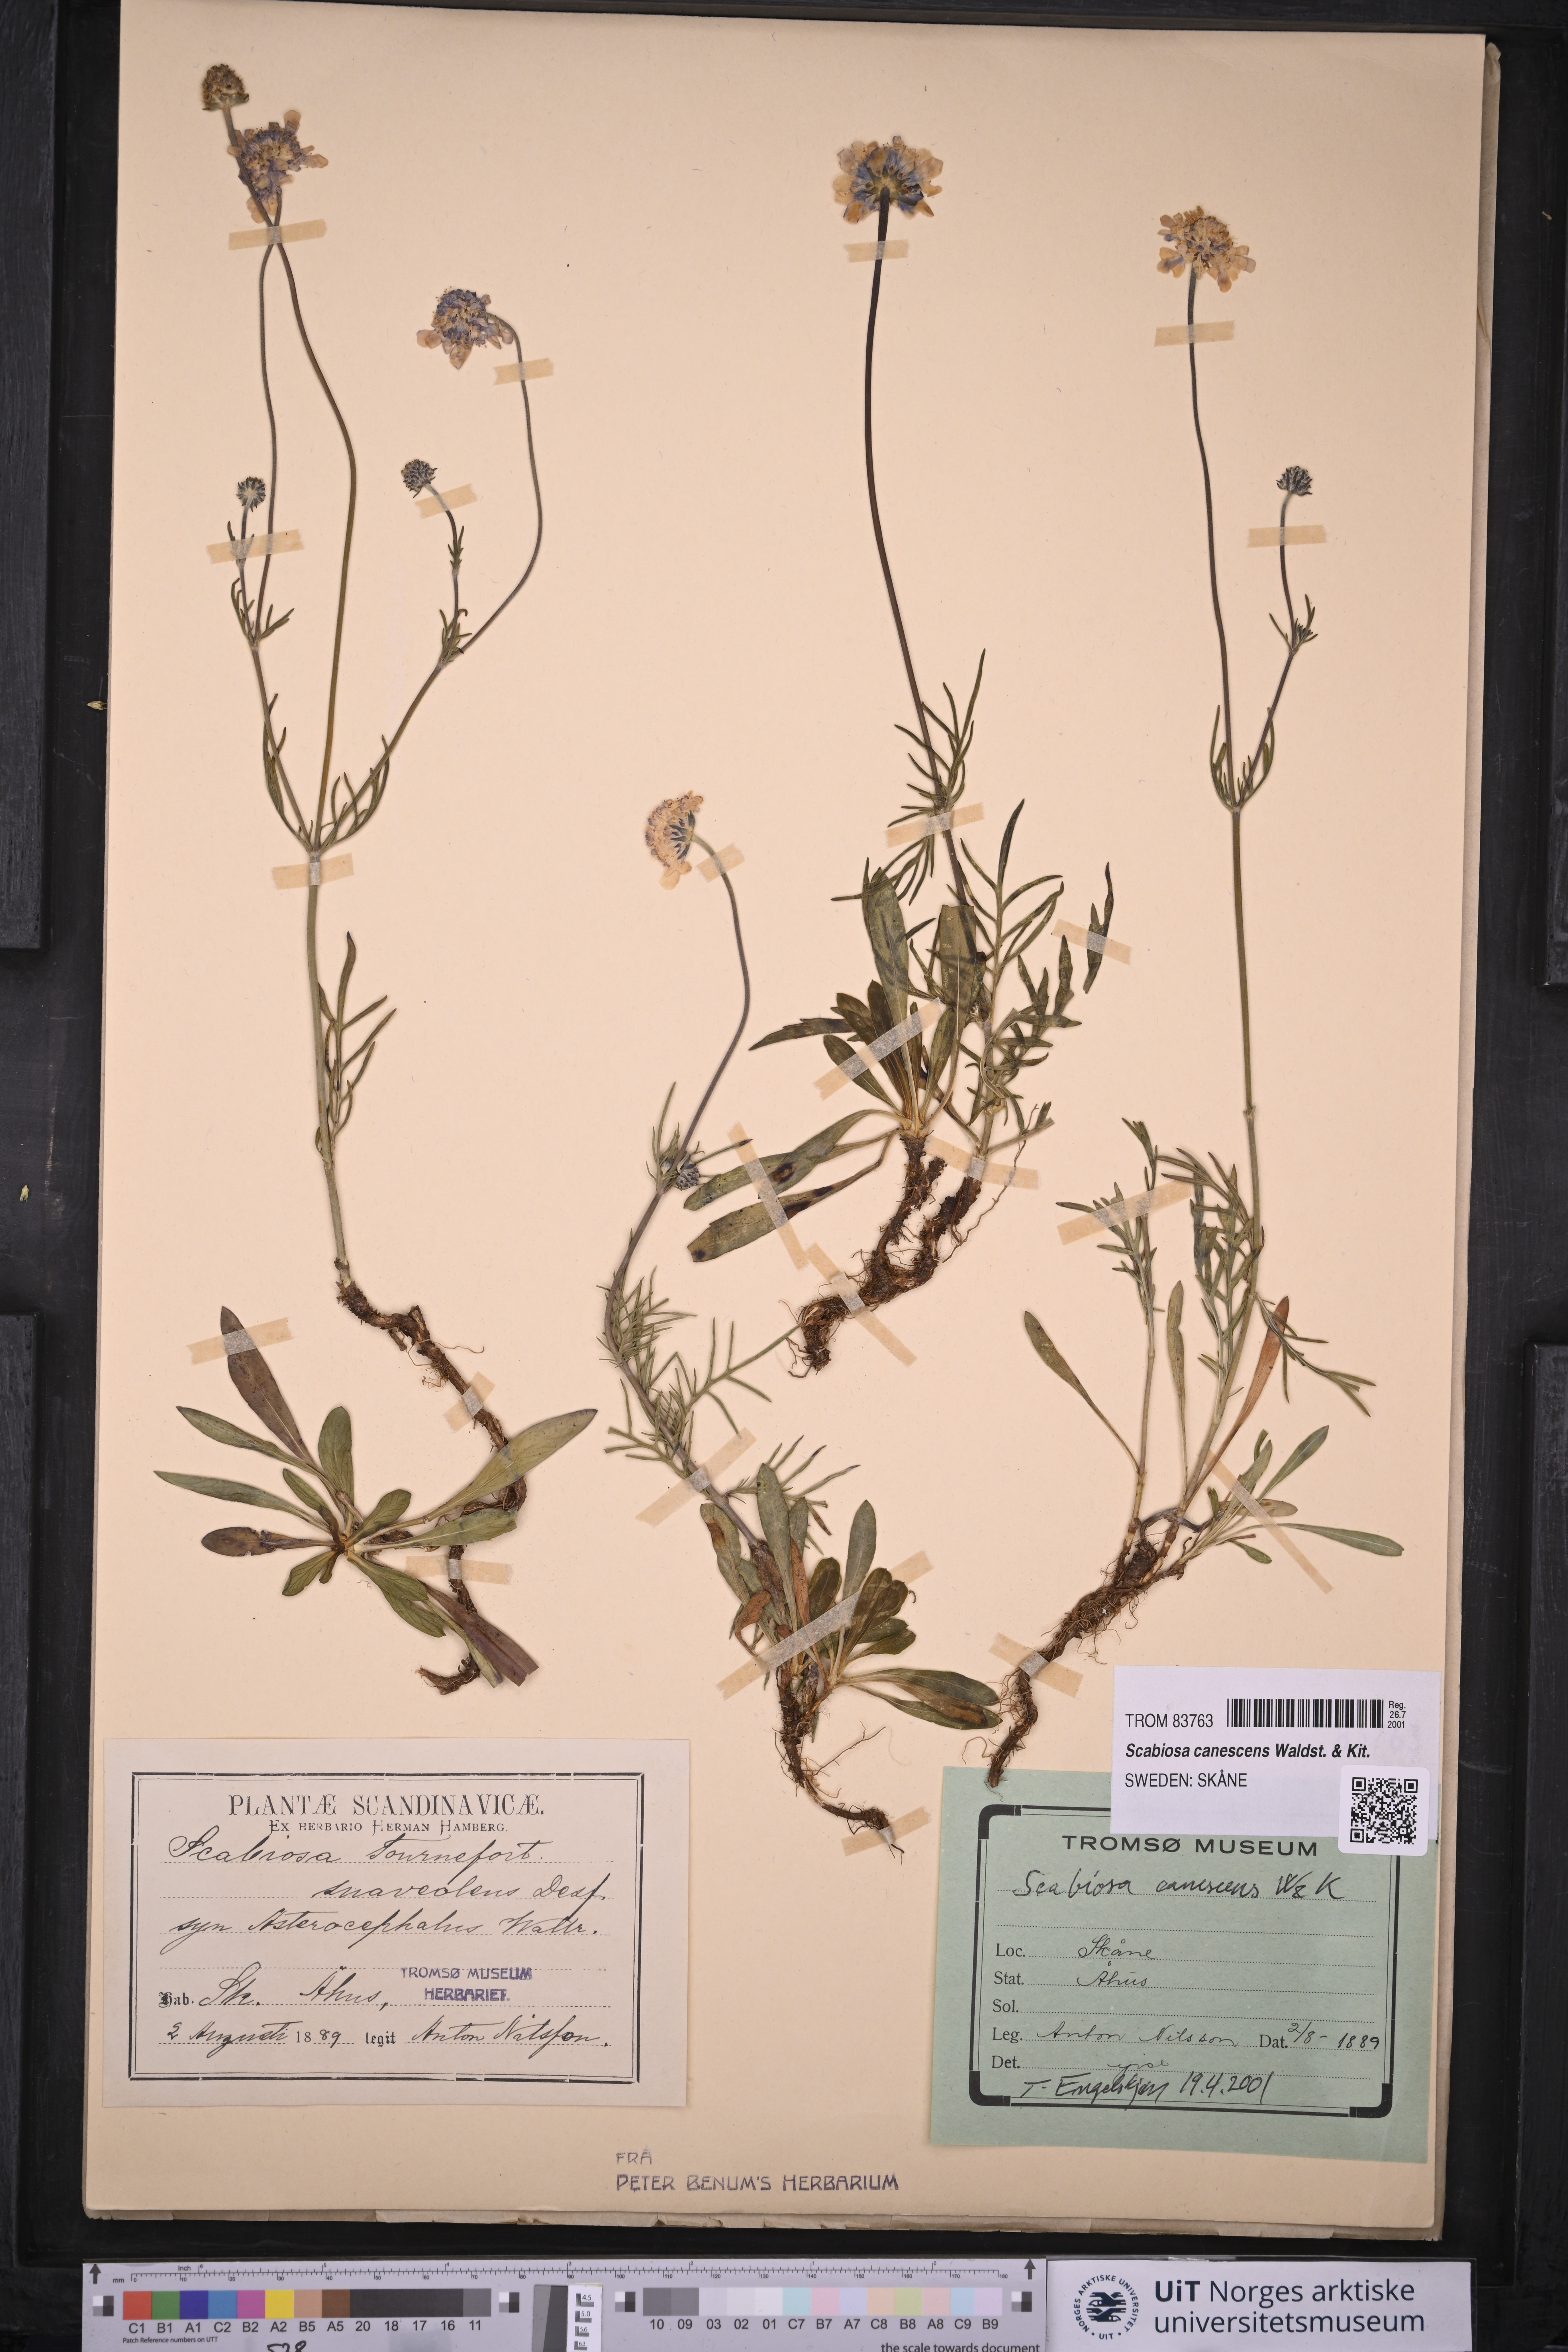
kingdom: Plantae
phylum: Tracheophyta
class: Magnoliopsida
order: Dipsacales
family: Caprifoliaceae
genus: Scabiosa
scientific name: Scabiosa canescens
